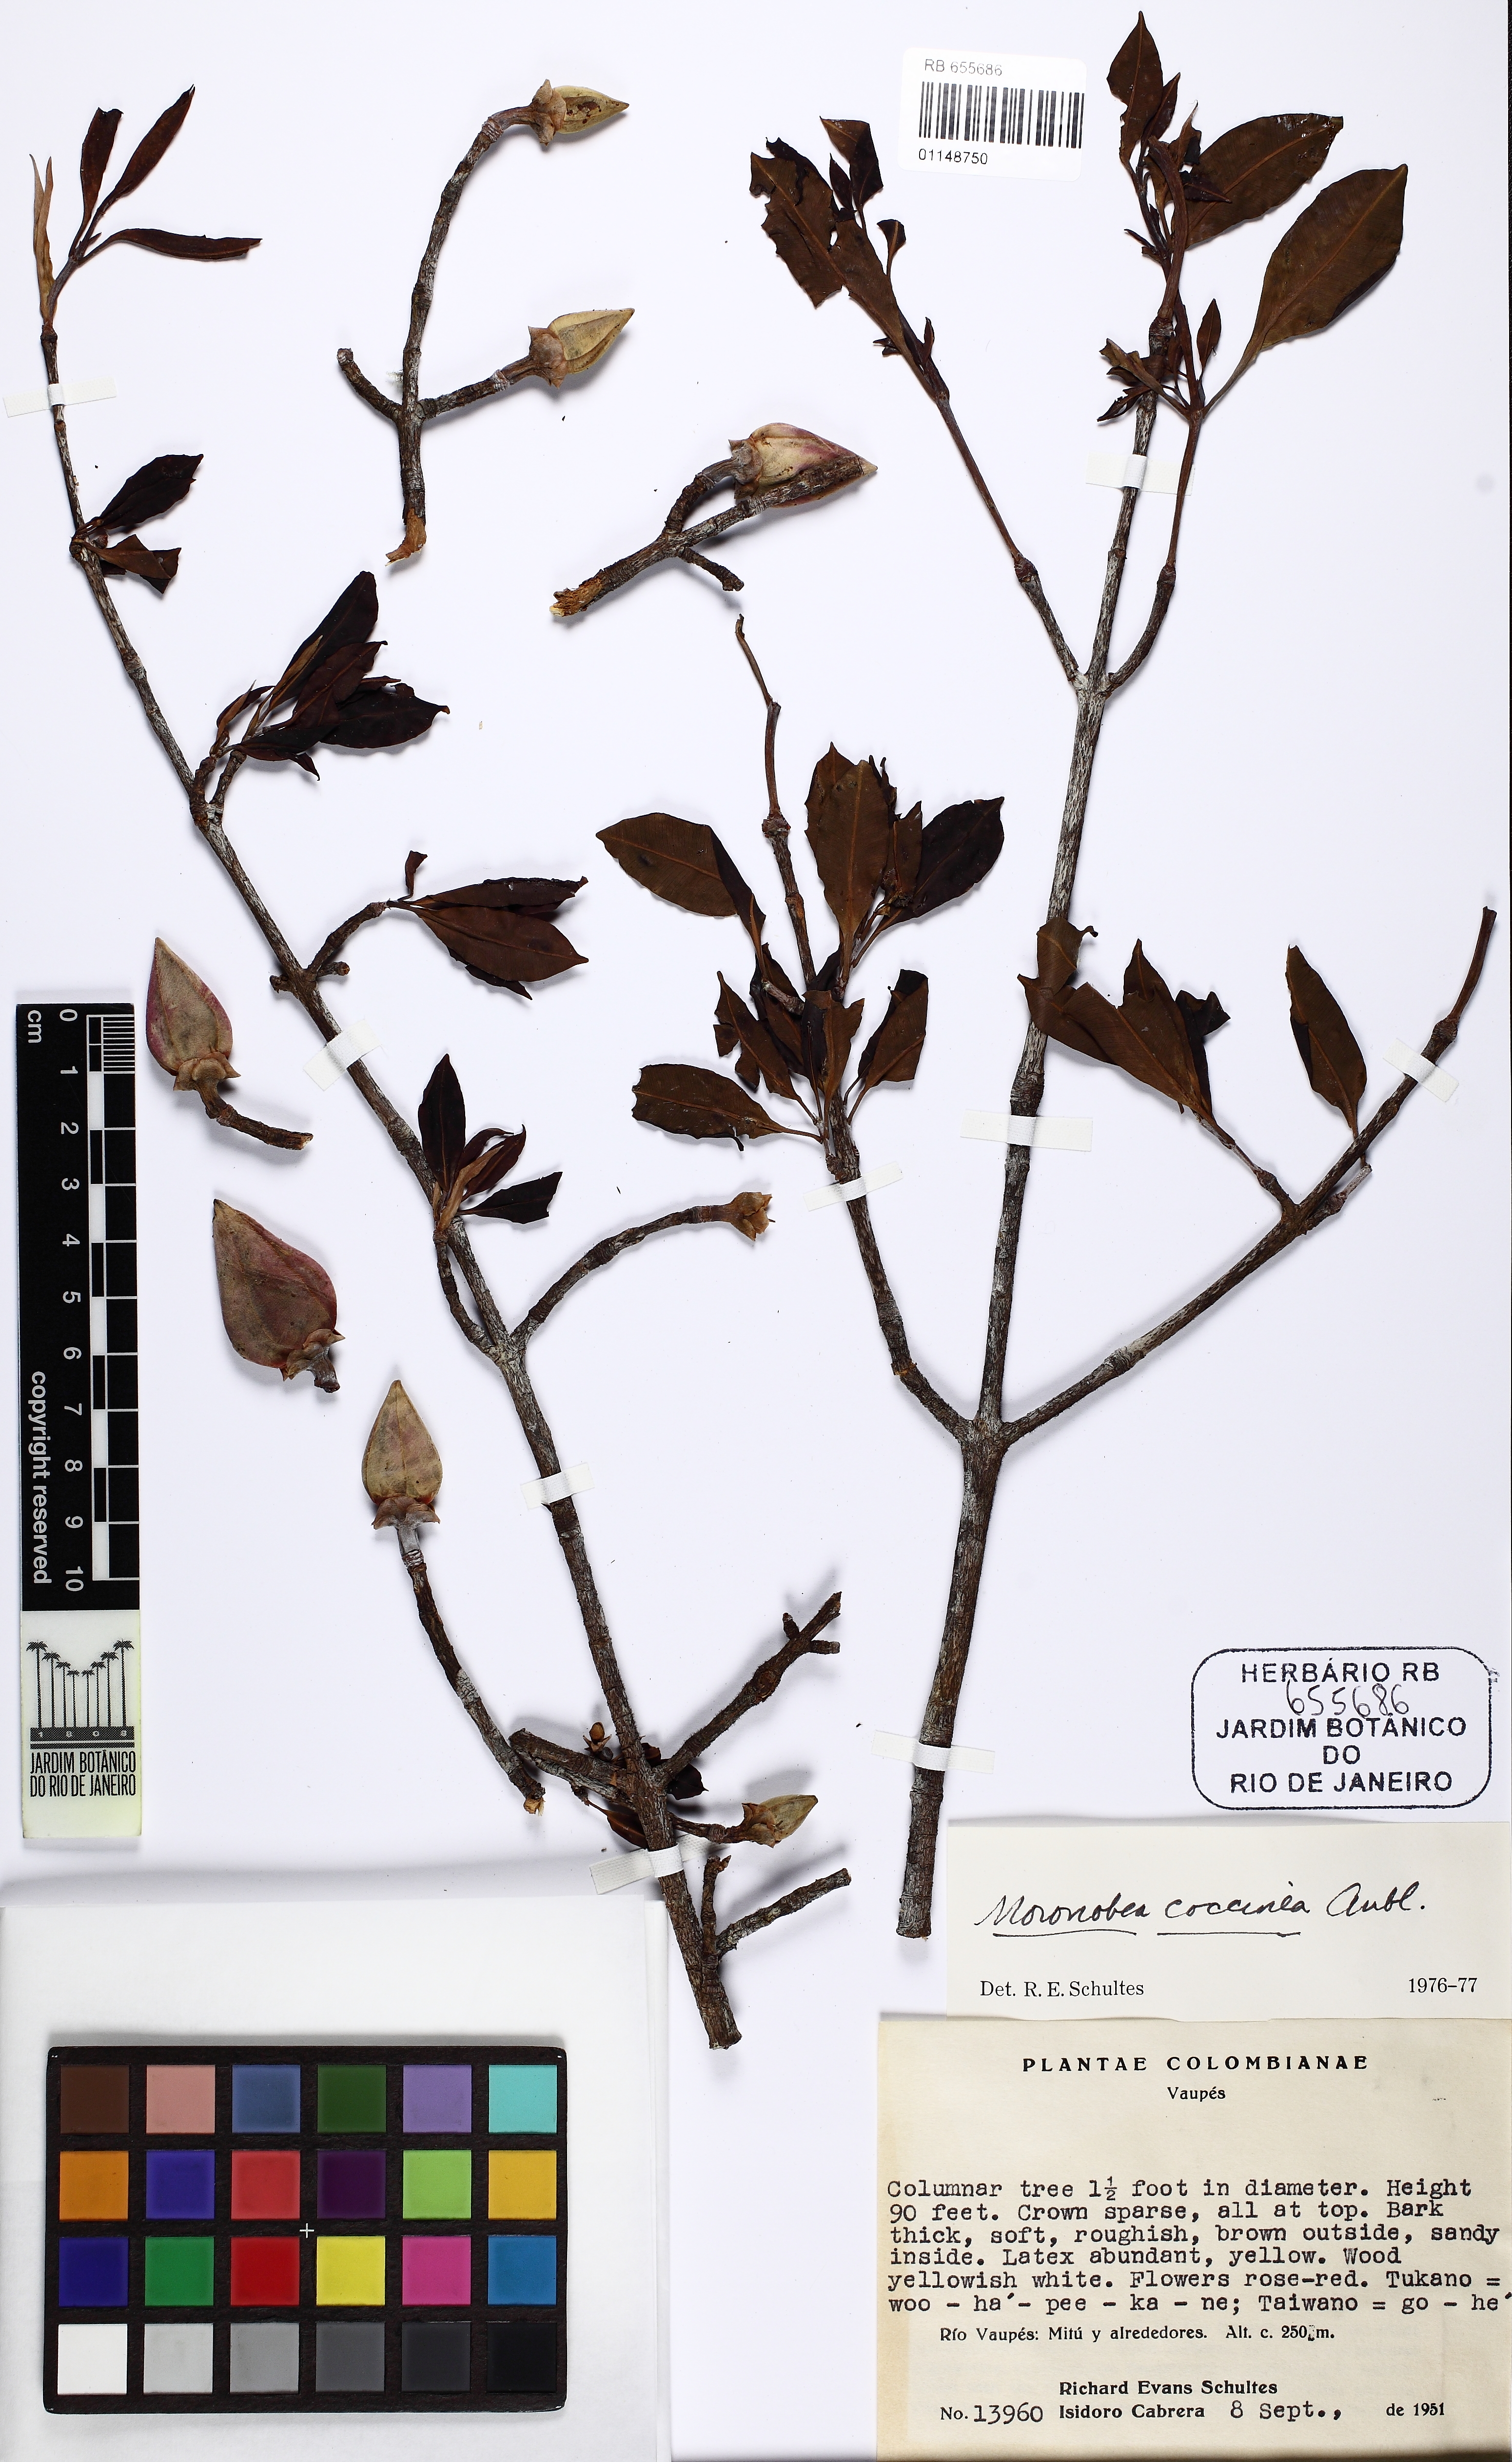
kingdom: Plantae
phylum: Tracheophyta
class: Magnoliopsida
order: Malpighiales
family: Clusiaceae
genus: Moronobea
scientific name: Moronobea coccinea
